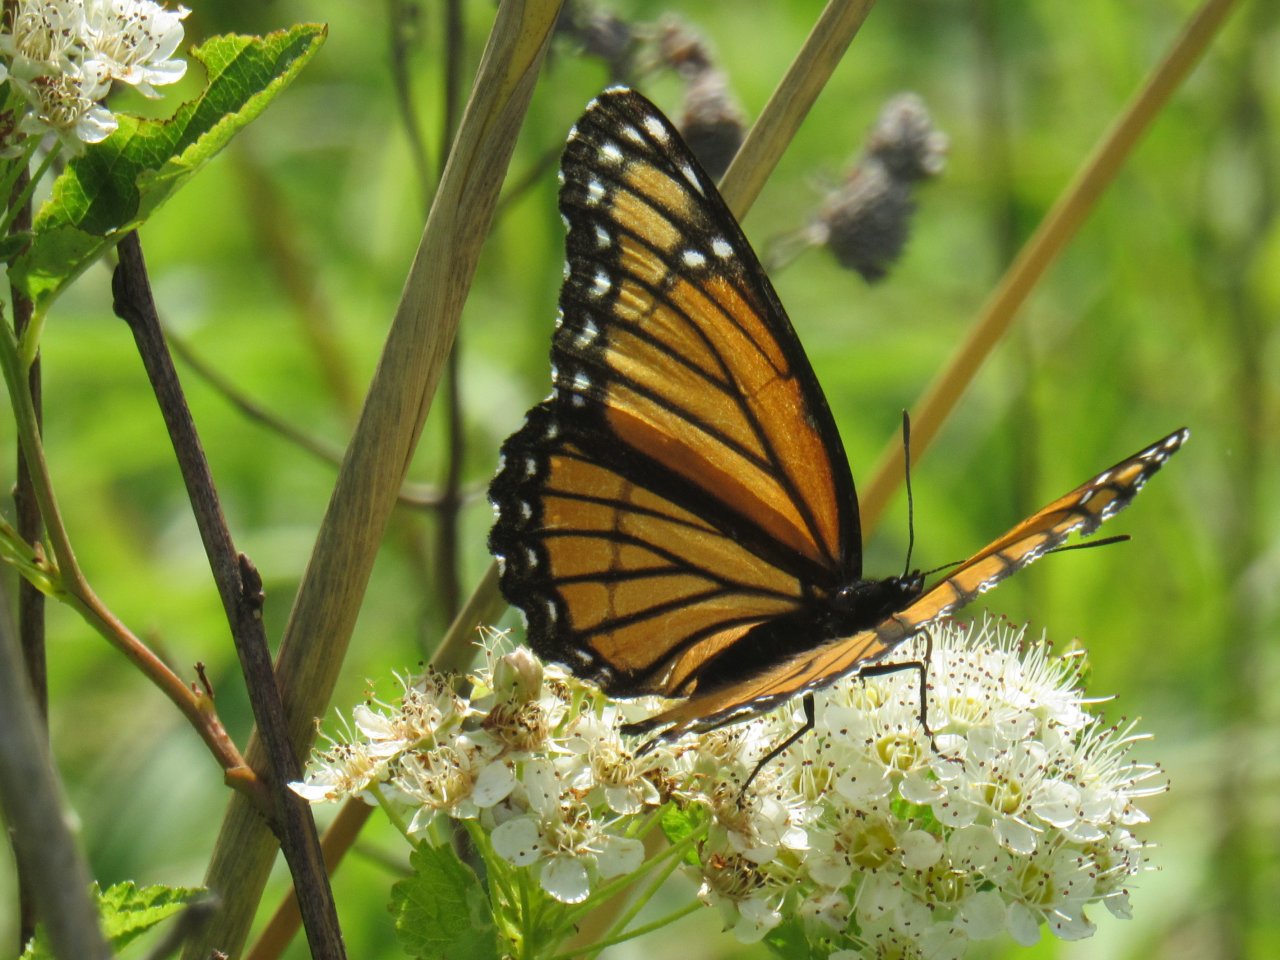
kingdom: Animalia
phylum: Arthropoda
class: Insecta
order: Lepidoptera
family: Nymphalidae
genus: Limenitis
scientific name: Limenitis archippus
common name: Viceroy
